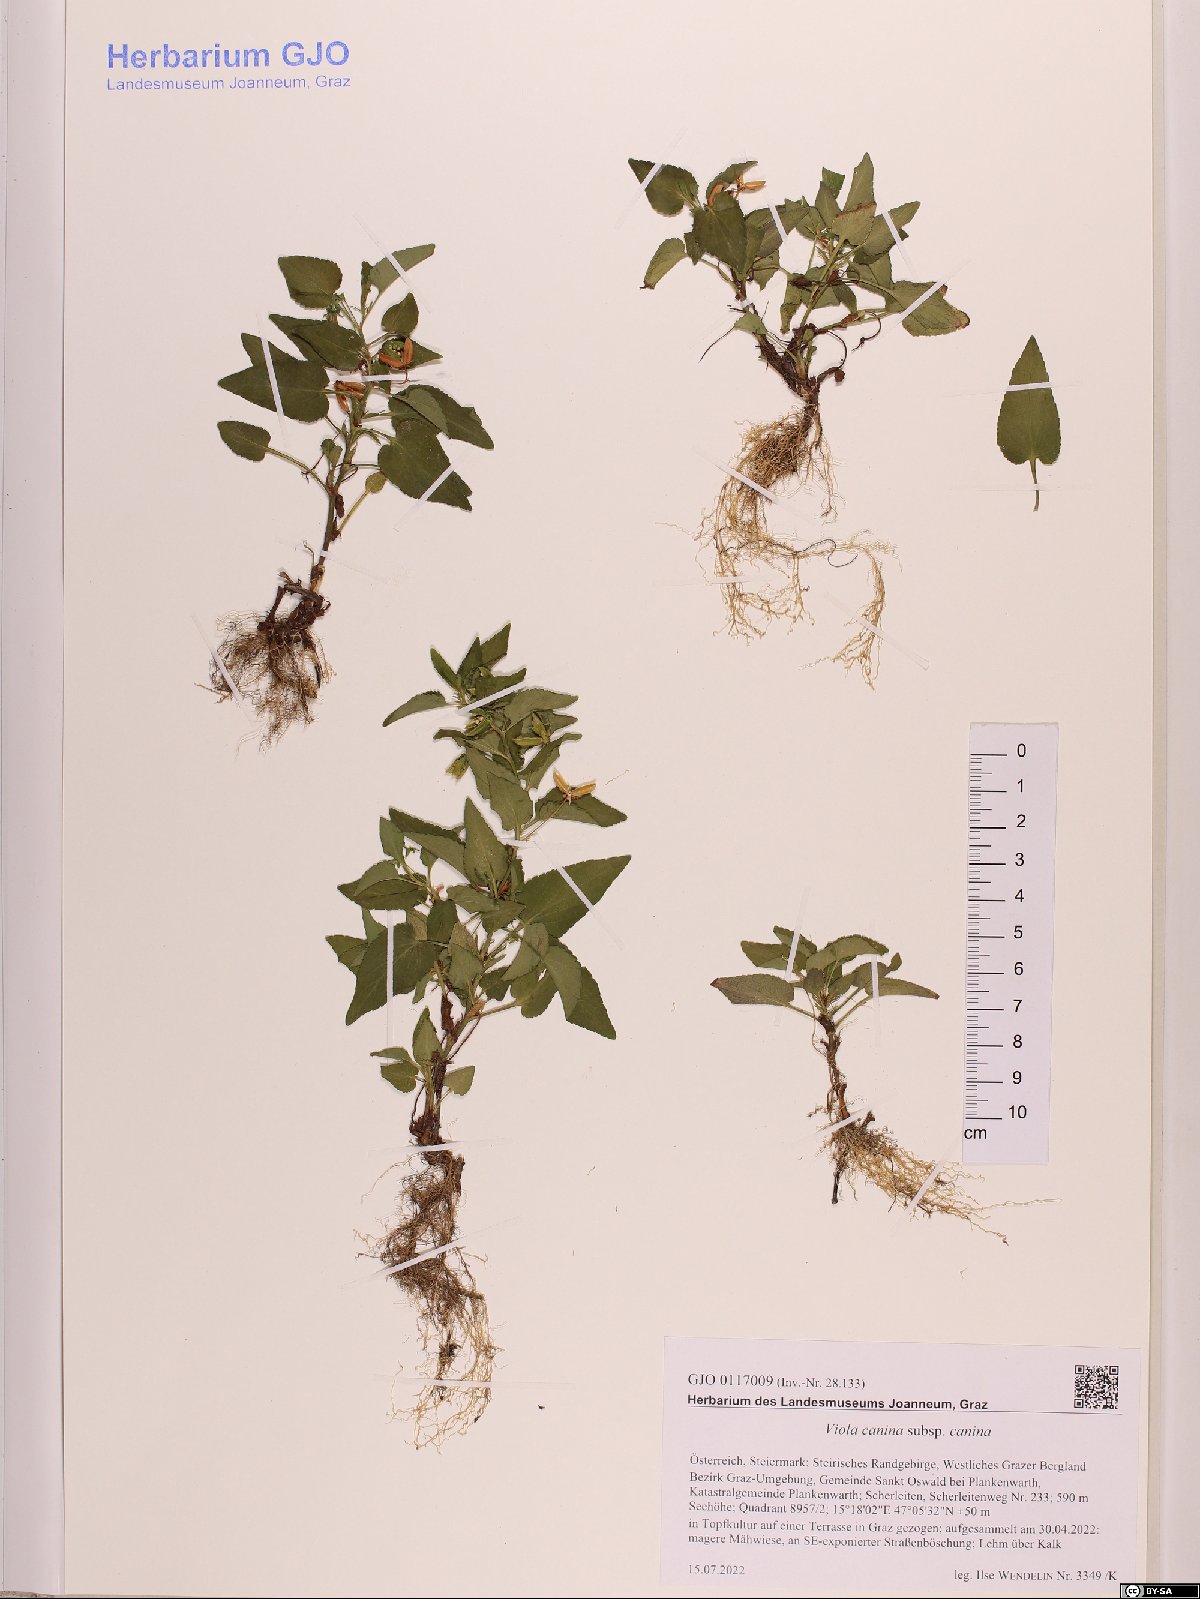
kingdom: Plantae
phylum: Tracheophyta
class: Magnoliopsida
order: Malpighiales
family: Violaceae
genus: Viola
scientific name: Viola canina
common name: Heath dog-violet
